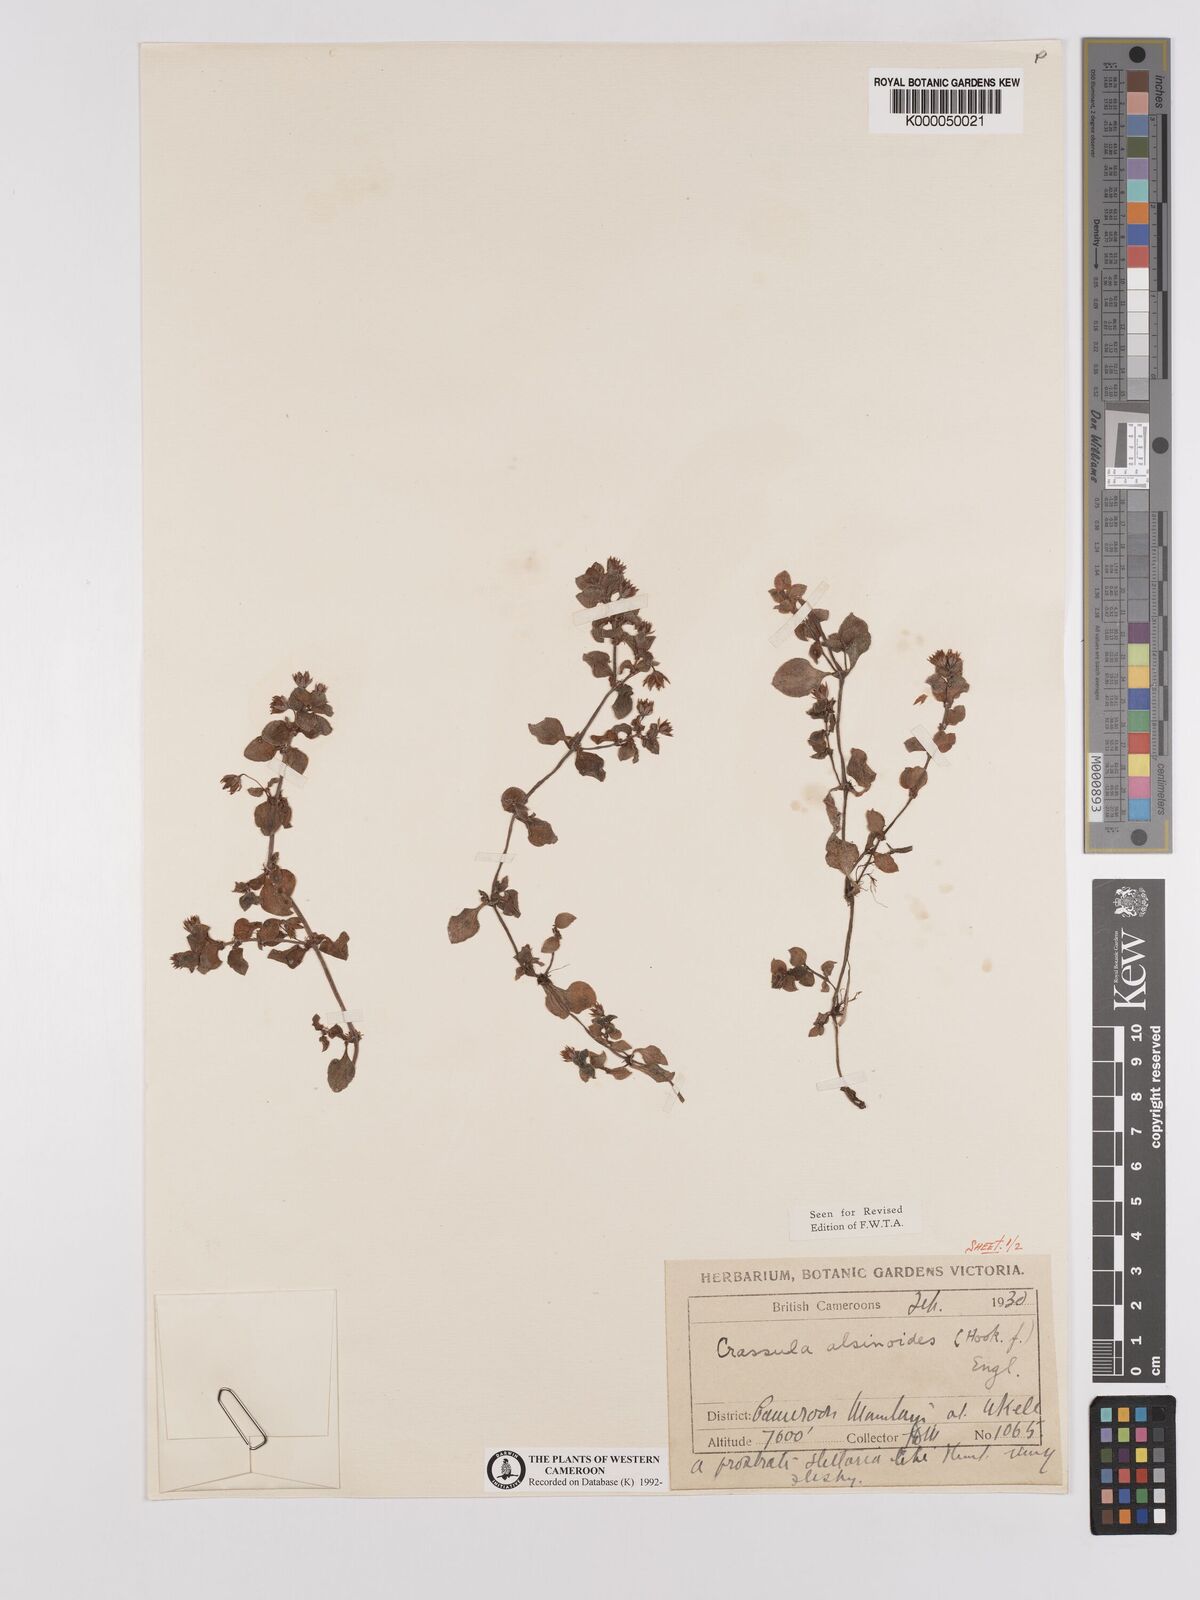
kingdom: Plantae
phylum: Tracheophyta
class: Magnoliopsida
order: Saxifragales
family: Crassulaceae
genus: Crassula
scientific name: Crassula alsinoides
